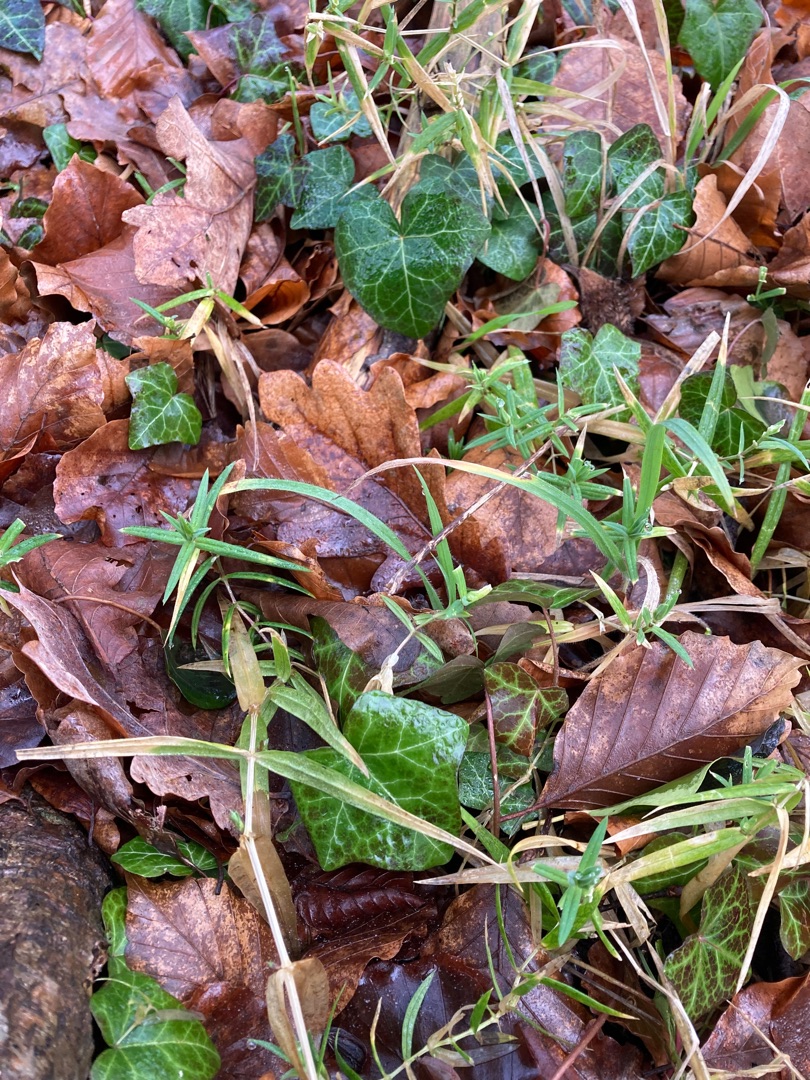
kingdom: Plantae
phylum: Tracheophyta
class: Magnoliopsida
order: Caryophyllales
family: Caryophyllaceae
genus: Rabelera
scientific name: Rabelera holostea
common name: Stor fladstjerne
